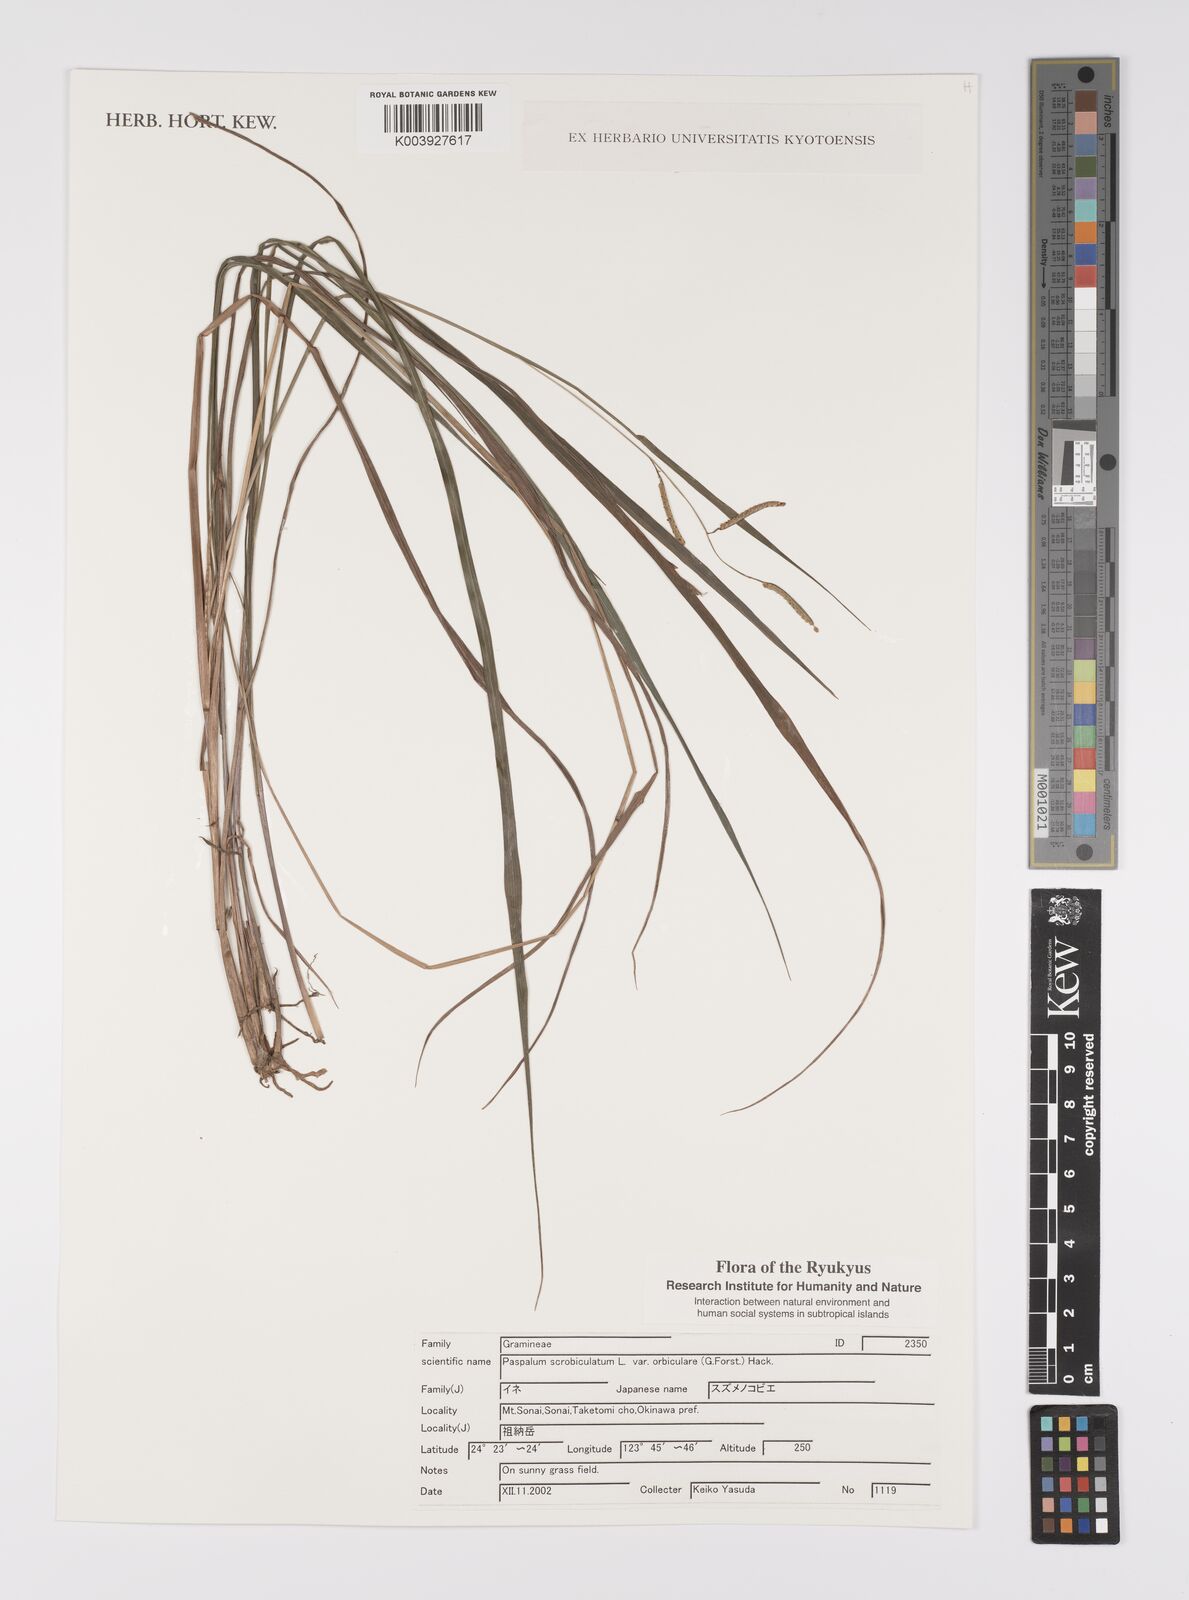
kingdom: Plantae
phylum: Tracheophyta
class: Liliopsida
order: Poales
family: Poaceae
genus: Paspalum
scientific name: Paspalum scrobiculatum
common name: Kodo millet
